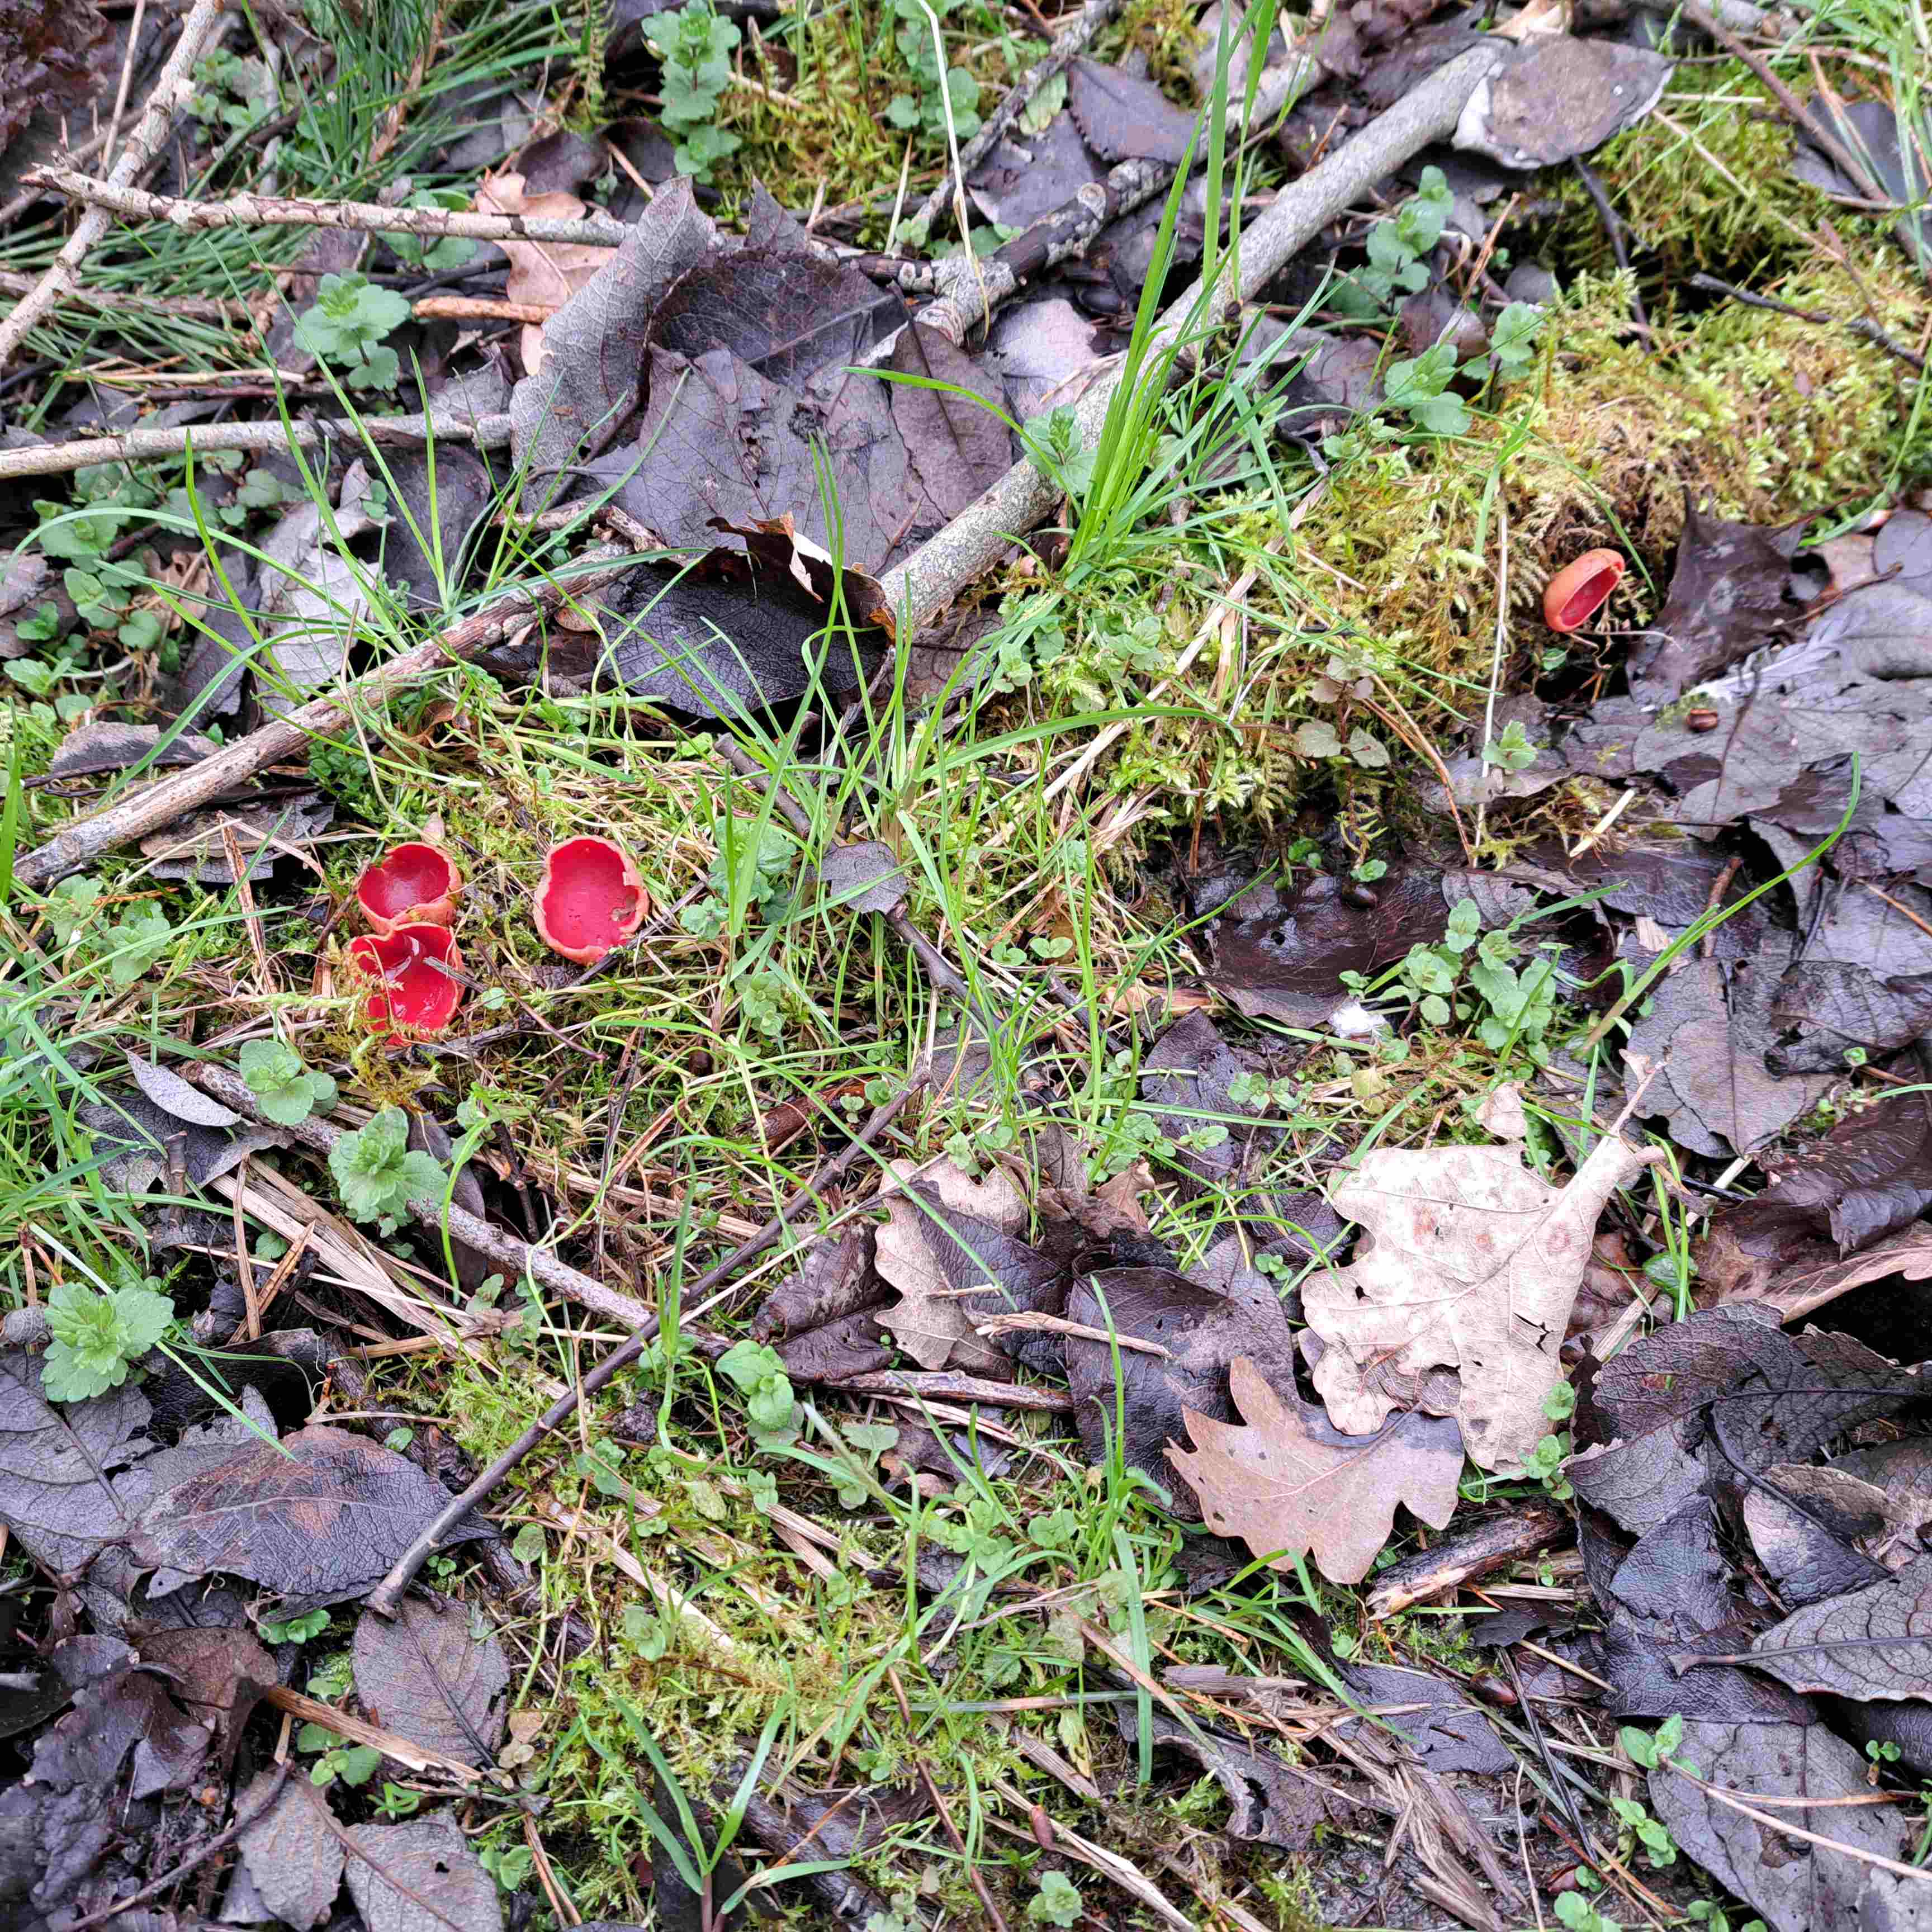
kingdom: Fungi
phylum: Ascomycota
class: Pezizomycetes
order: Pezizales
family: Sarcoscyphaceae
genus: Sarcoscypha
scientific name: Sarcoscypha austriaca
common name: krølhåret pragtbæger
